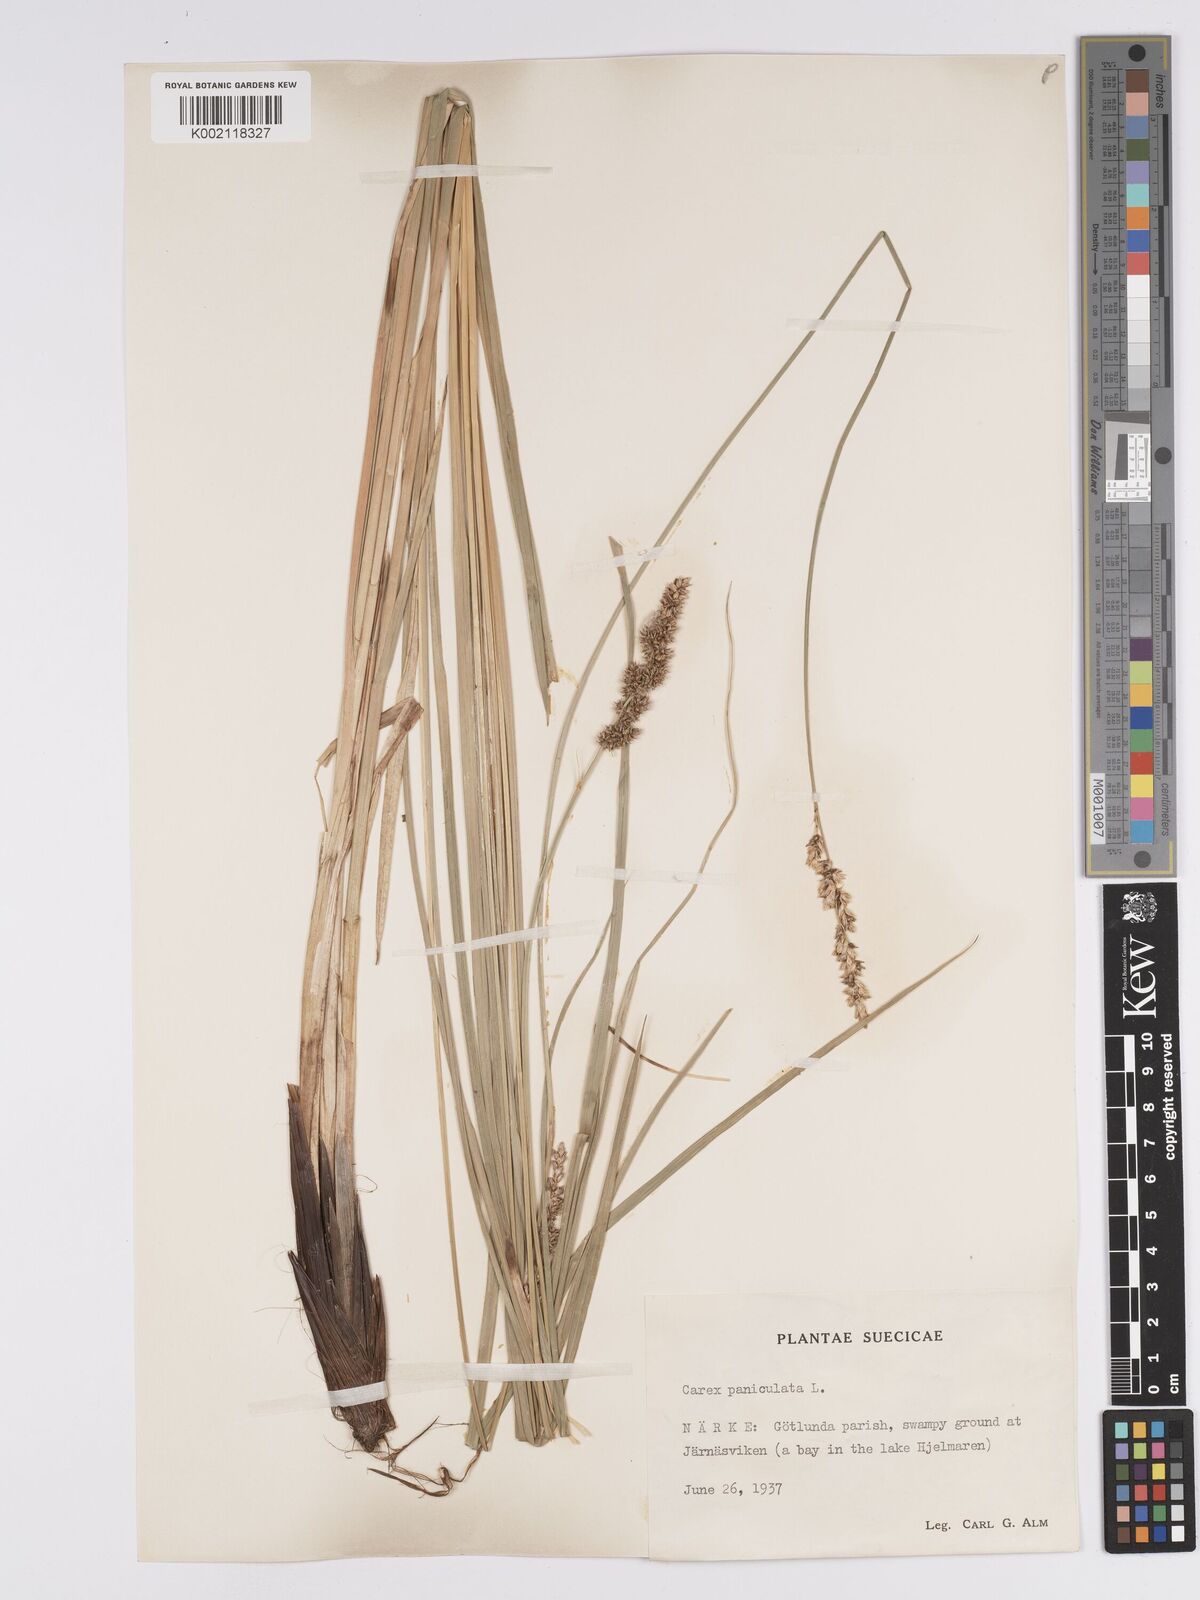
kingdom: Plantae
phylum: Tracheophyta
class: Liliopsida
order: Poales
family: Cyperaceae
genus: Carex
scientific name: Carex paniculata
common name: Greater tussock-sedge
